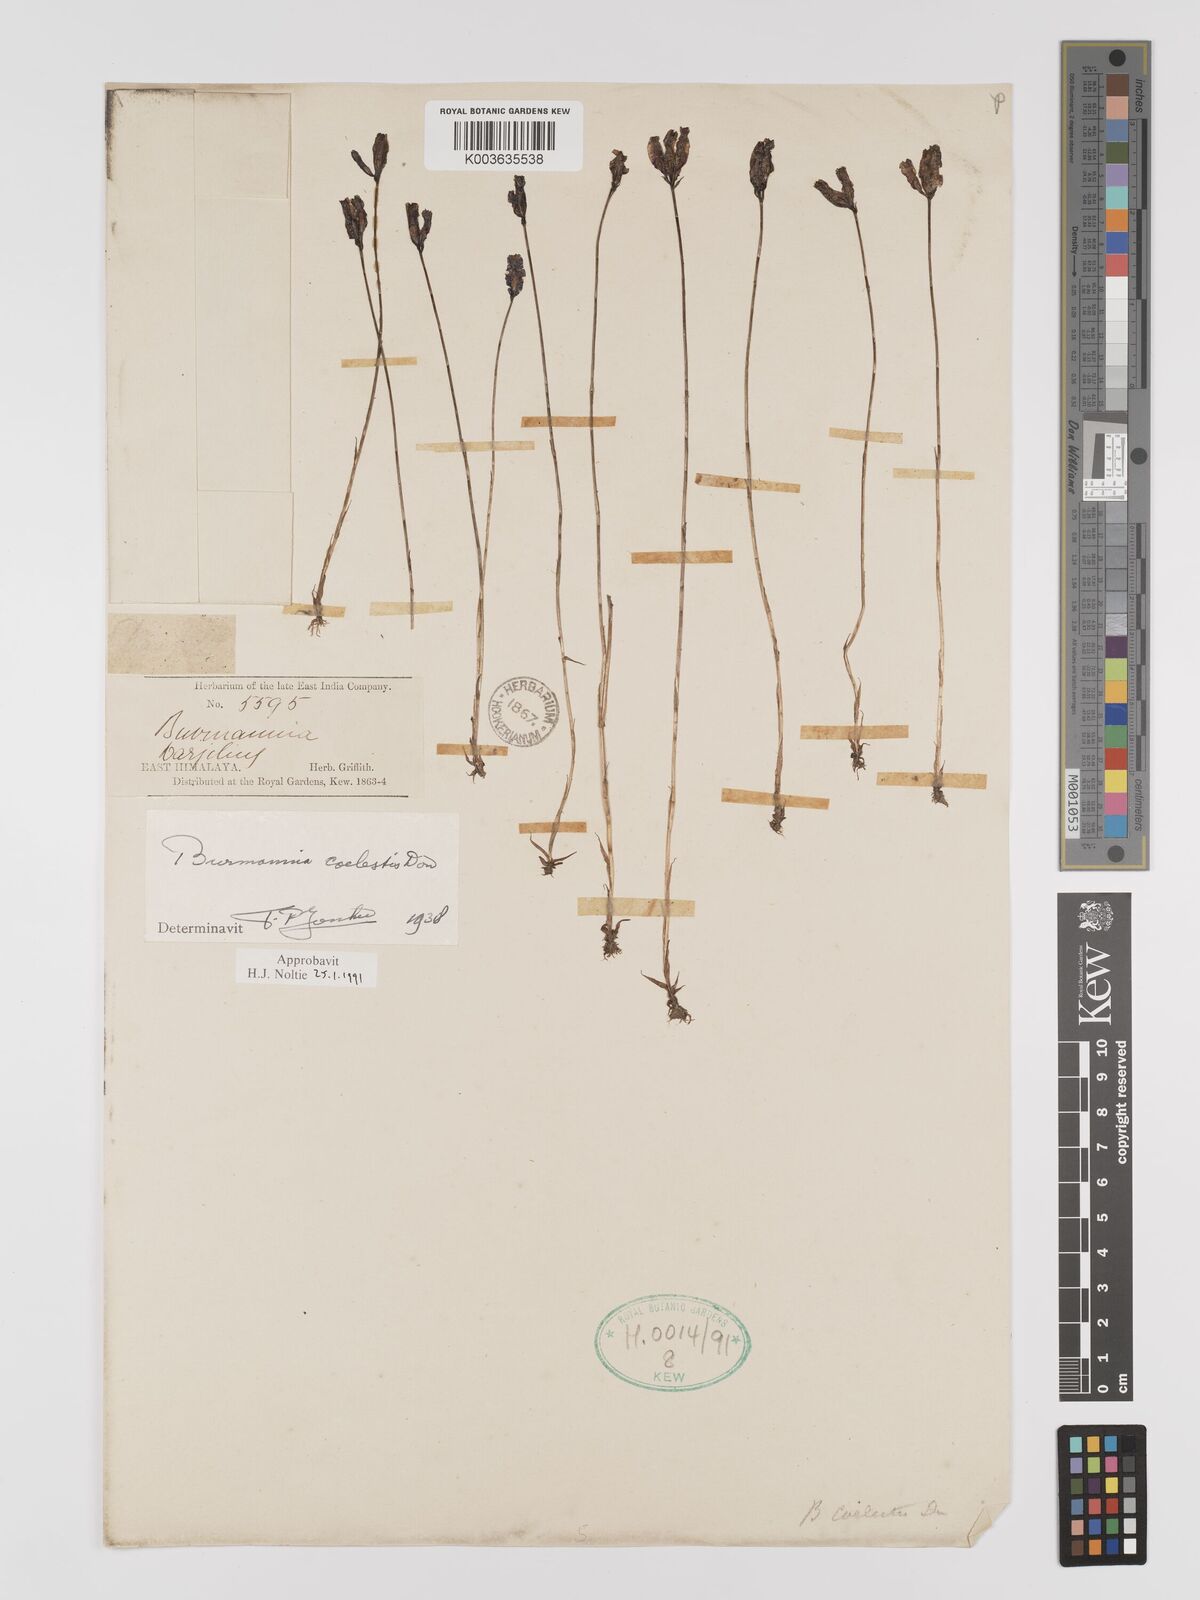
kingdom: Plantae
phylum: Tracheophyta
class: Liliopsida
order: Dioscoreales
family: Burmanniaceae
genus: Burmannia
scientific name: Burmannia coelestis
